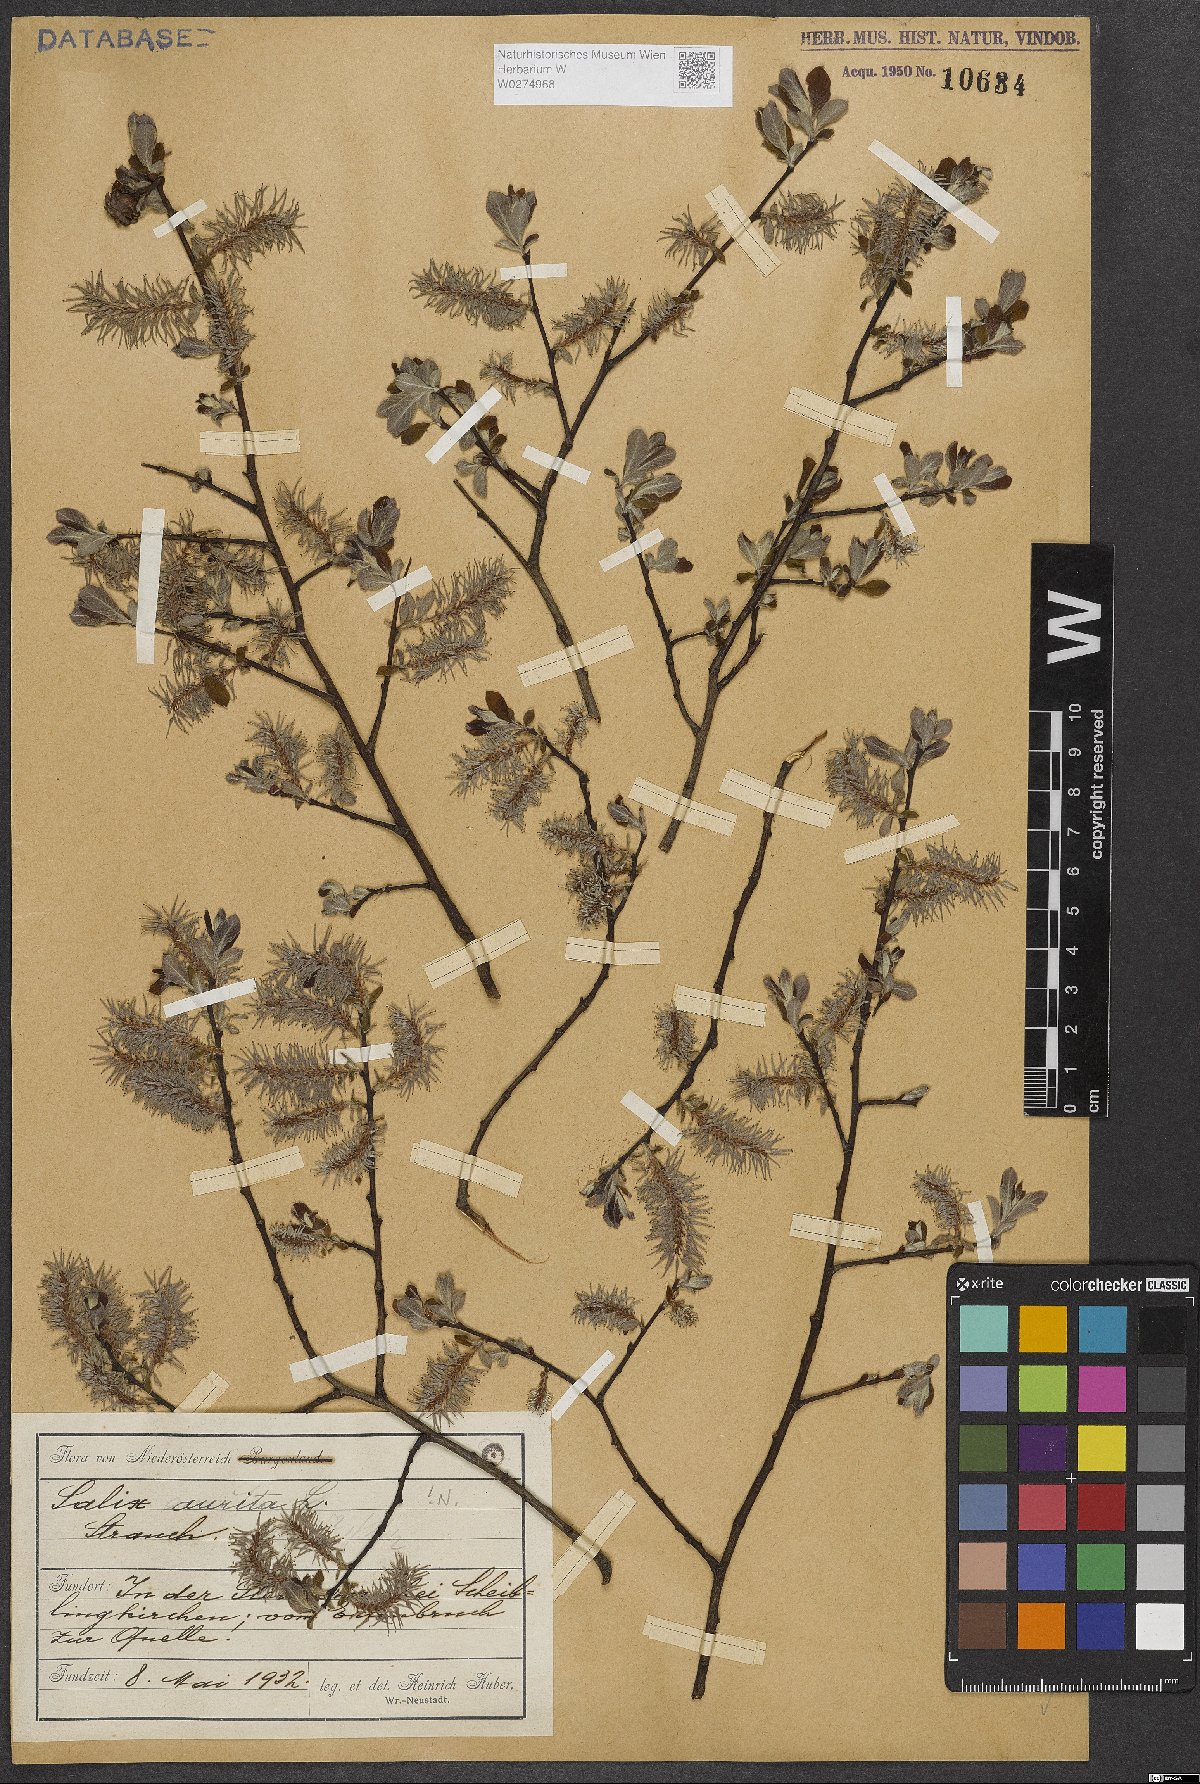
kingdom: Plantae
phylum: Tracheophyta
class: Magnoliopsida
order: Malpighiales
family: Salicaceae
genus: Salix
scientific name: Salix aurita
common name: Eared willow
